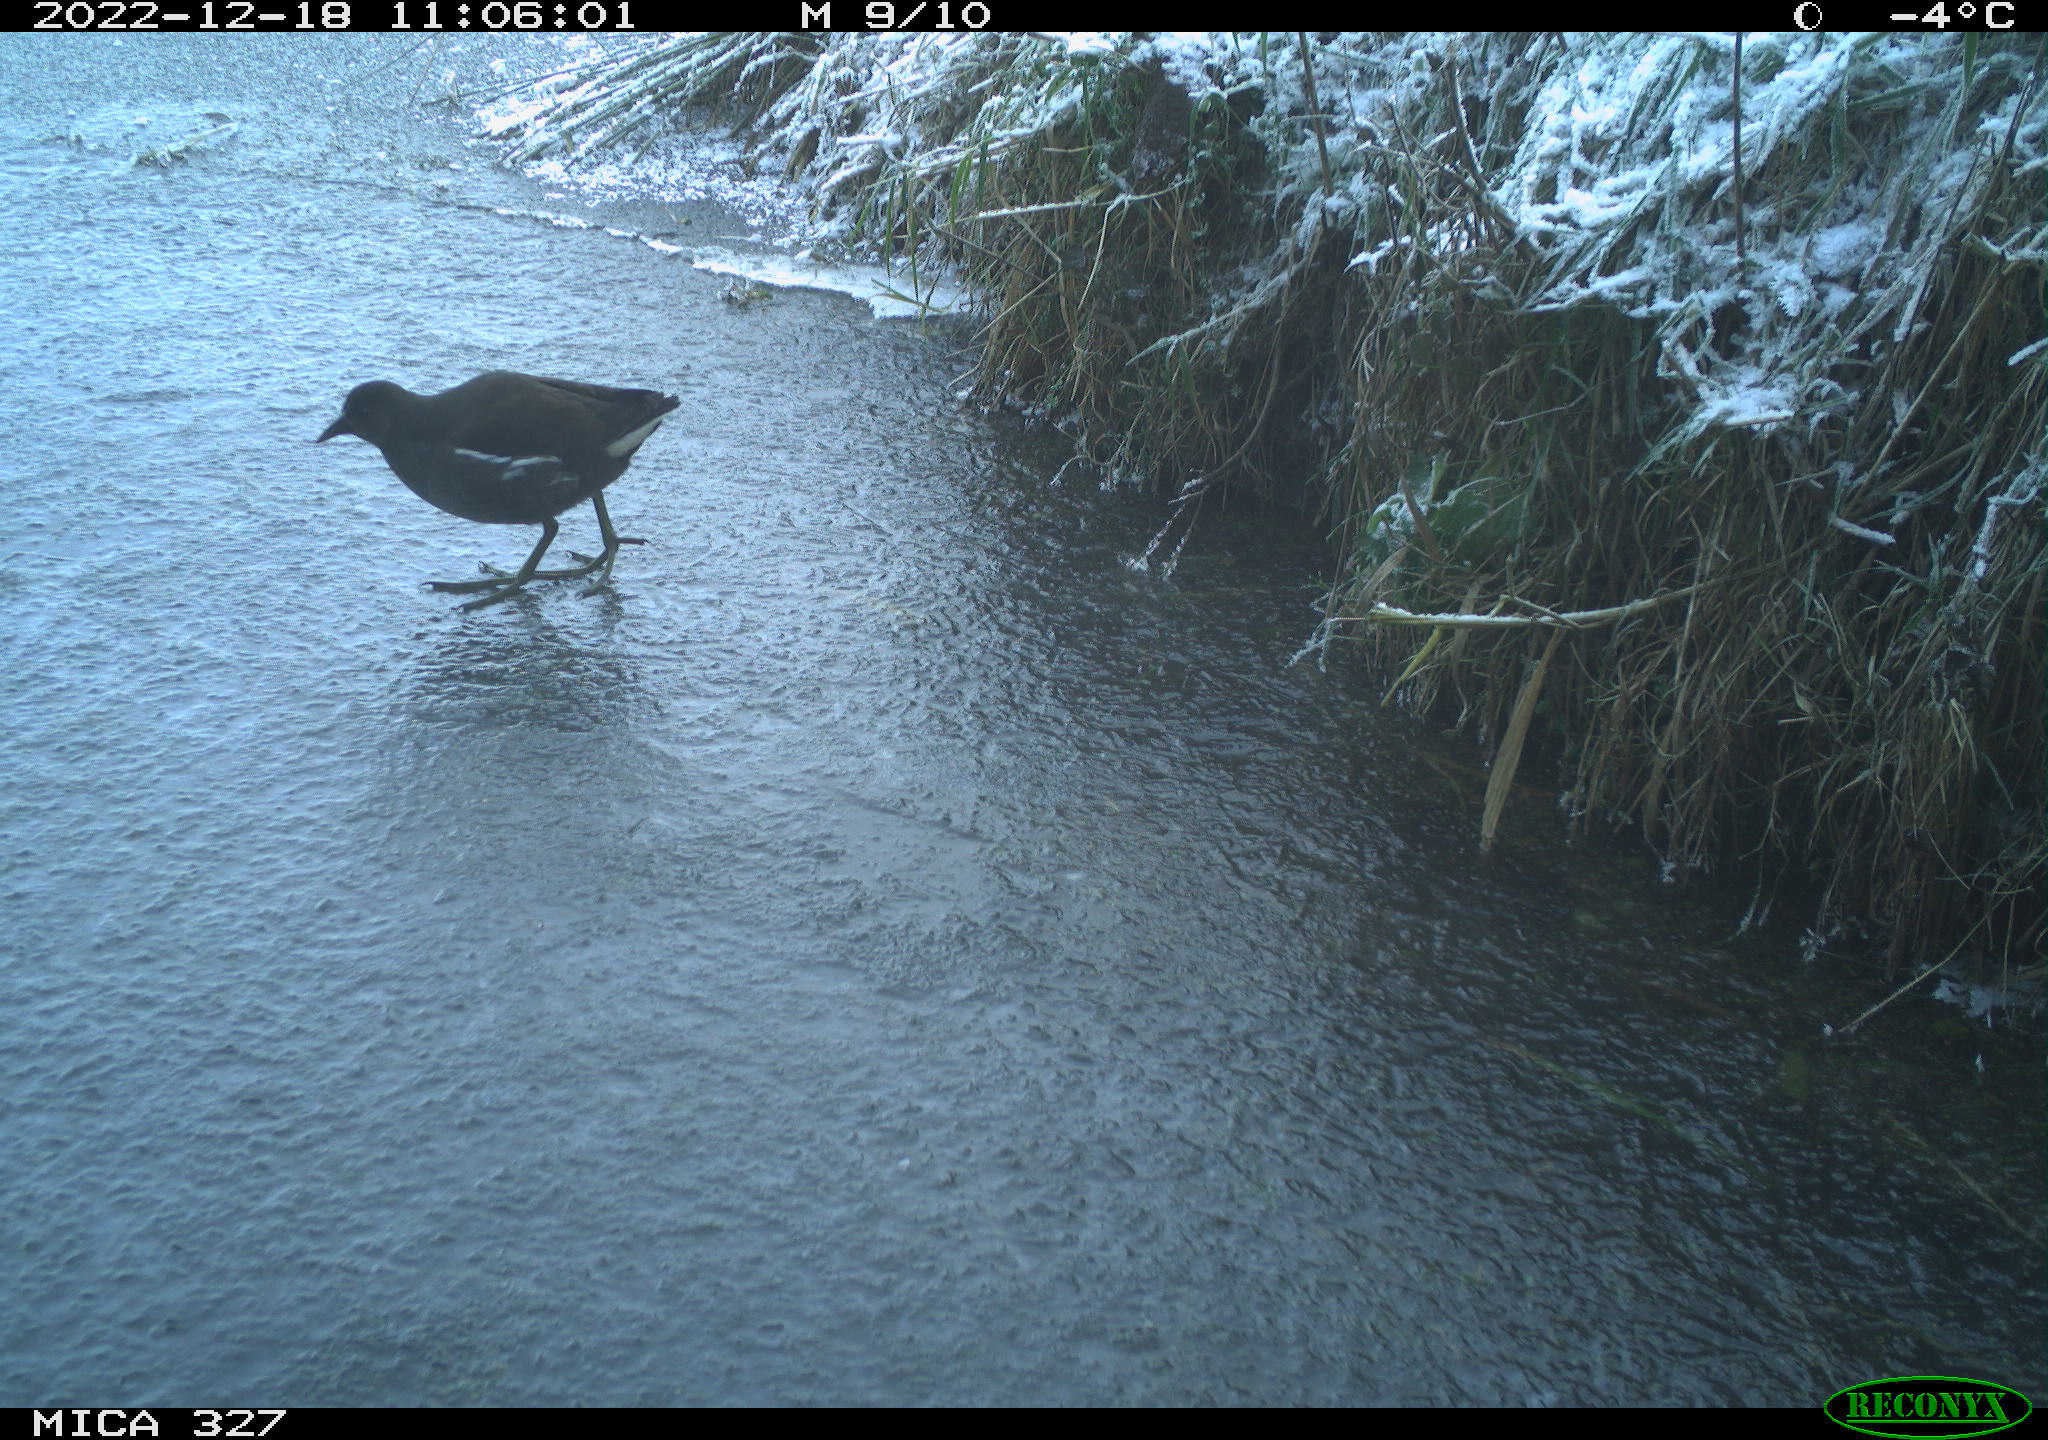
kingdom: Animalia
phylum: Chordata
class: Aves
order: Gruiformes
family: Rallidae
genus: Gallinula
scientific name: Gallinula chloropus
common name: Common moorhen
